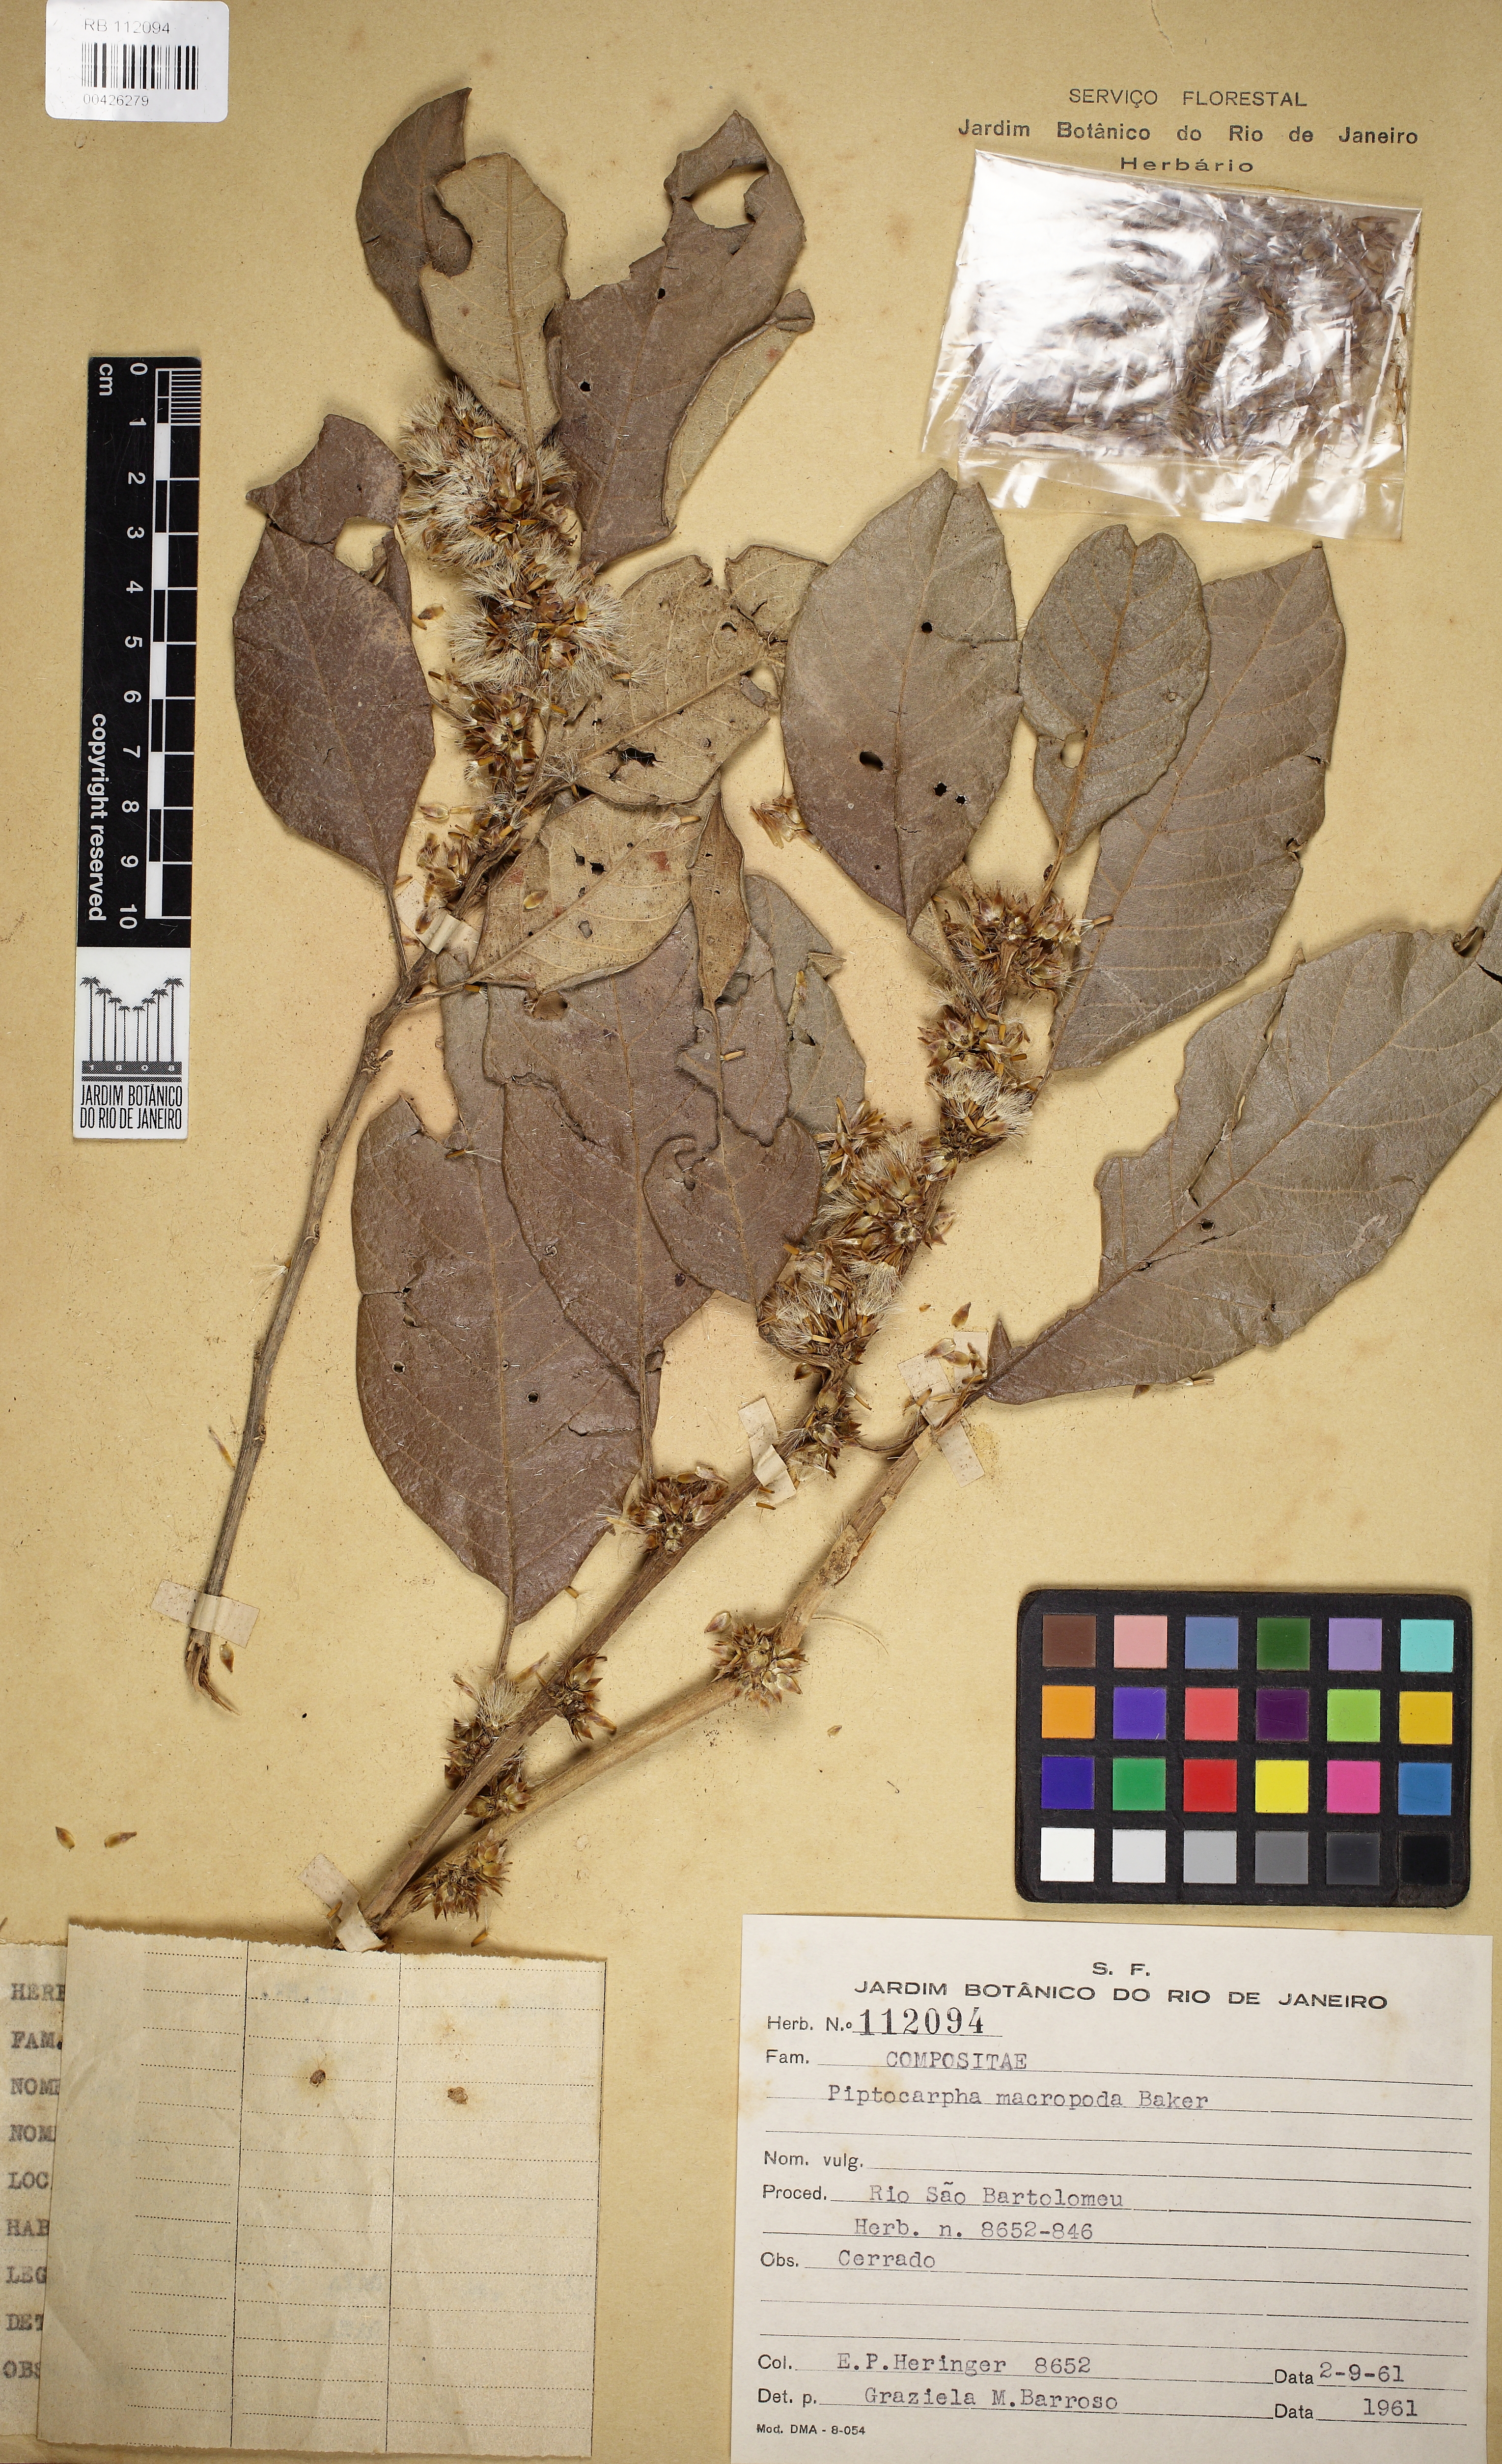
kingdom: Plantae
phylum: Tracheophyta
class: Magnoliopsida
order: Asterales
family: Asteraceae
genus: Piptocarpha
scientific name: Piptocarpha macropoda
